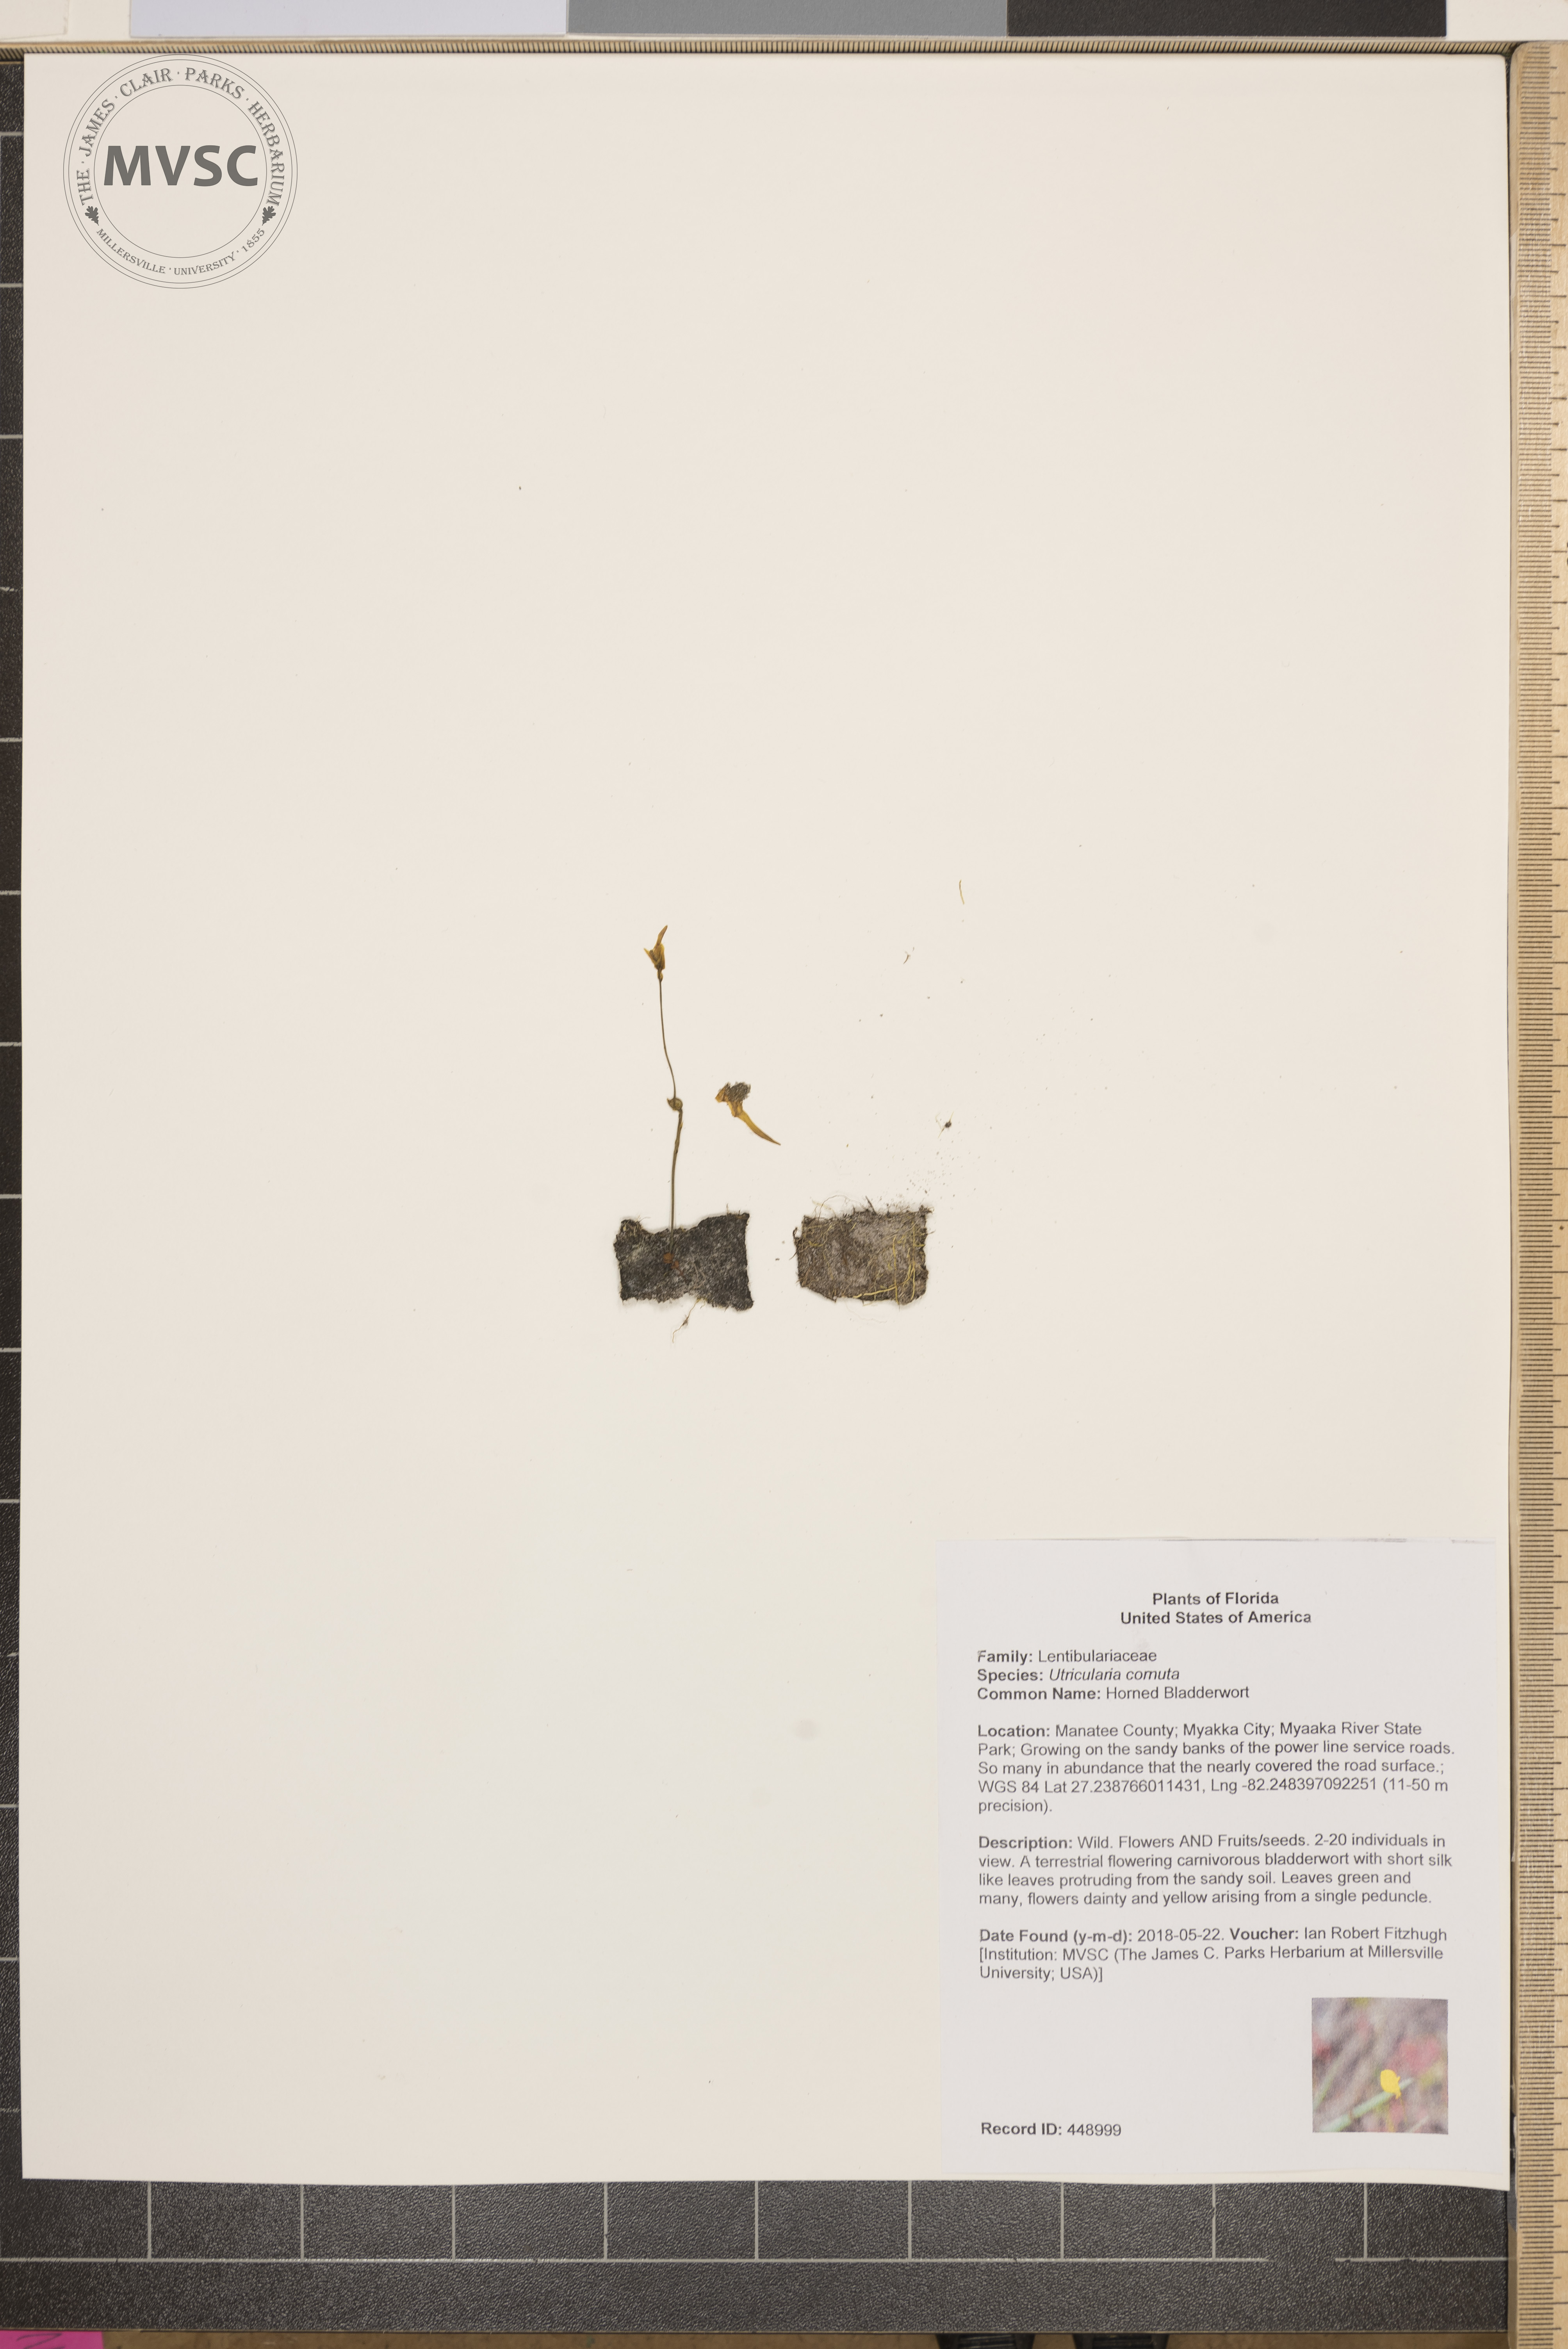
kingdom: Plantae
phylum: Tracheophyta
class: Magnoliopsida
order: Lamiales
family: Lentibulariaceae
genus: Utricularia
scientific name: Utricularia cornuta
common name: Horned Bladderwort
